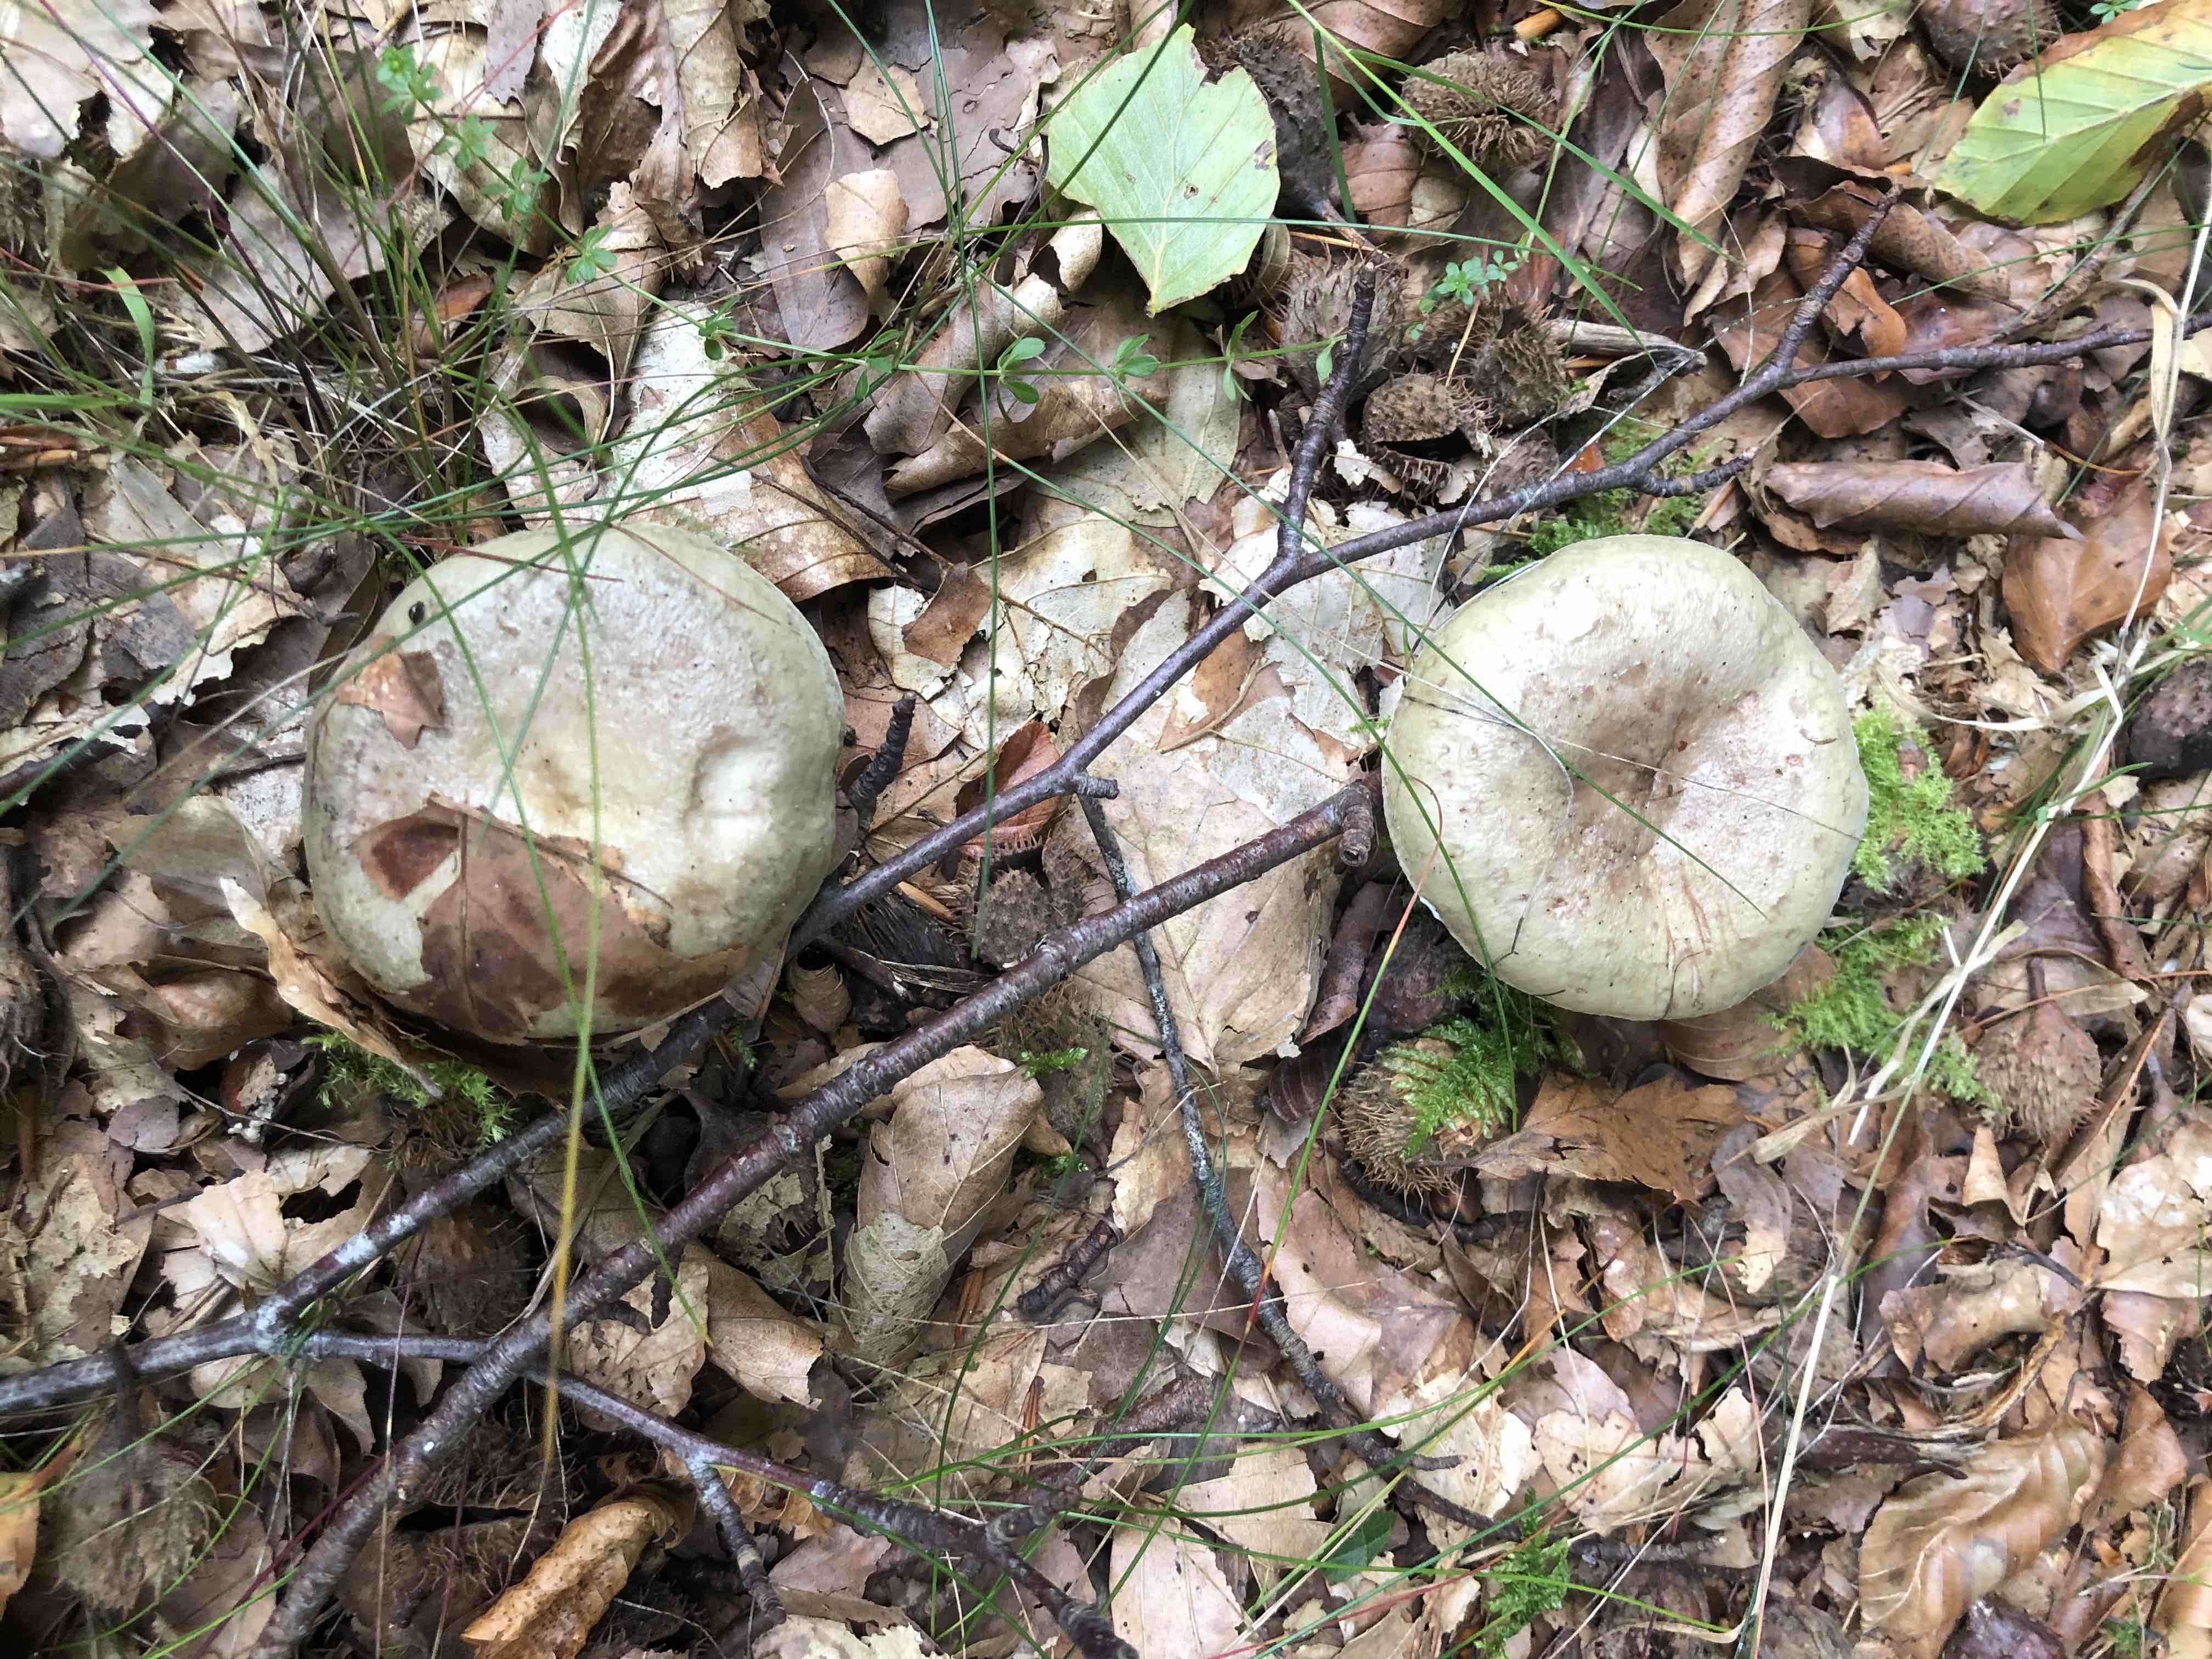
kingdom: Fungi
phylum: Basidiomycota
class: Agaricomycetes
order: Russulales
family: Russulaceae
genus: Lactarius
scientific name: Lactarius blennius
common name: dråbeplettet mælkehat
